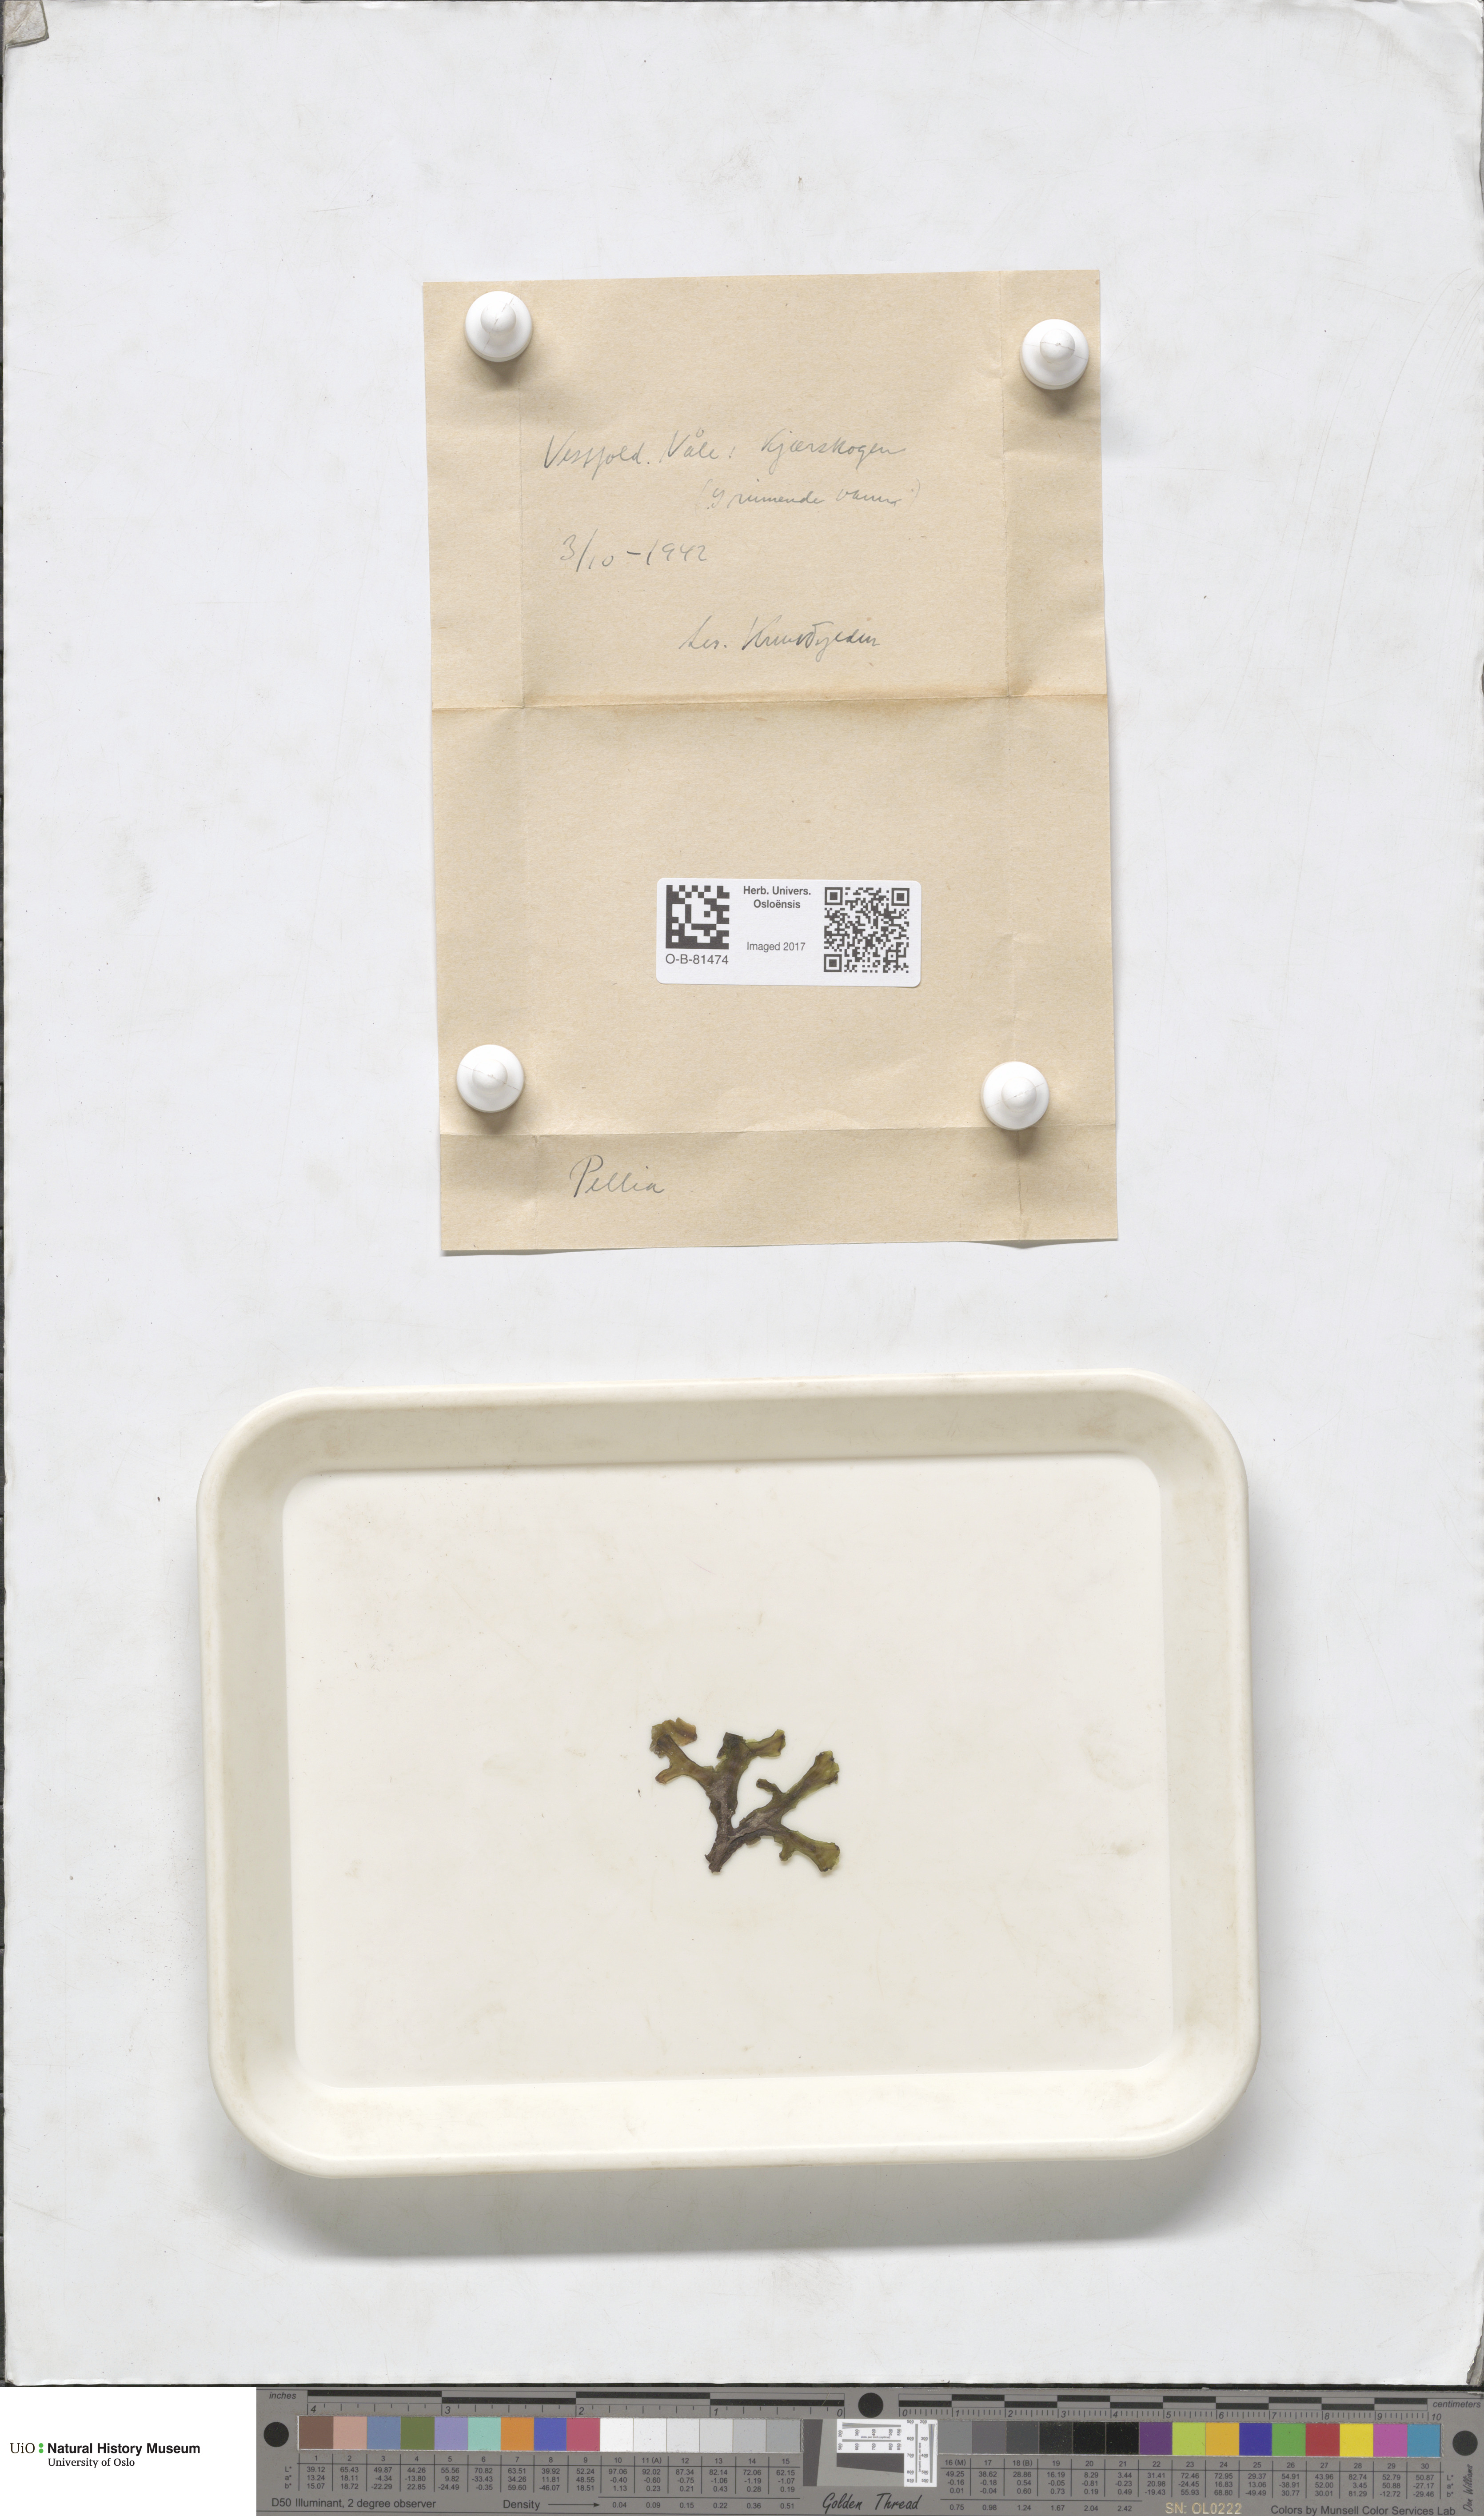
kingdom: Plantae
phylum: Marchantiophyta
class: Jungermanniopsida
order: Pelliales
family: Pelliaceae
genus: Pellia
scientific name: Pellia
